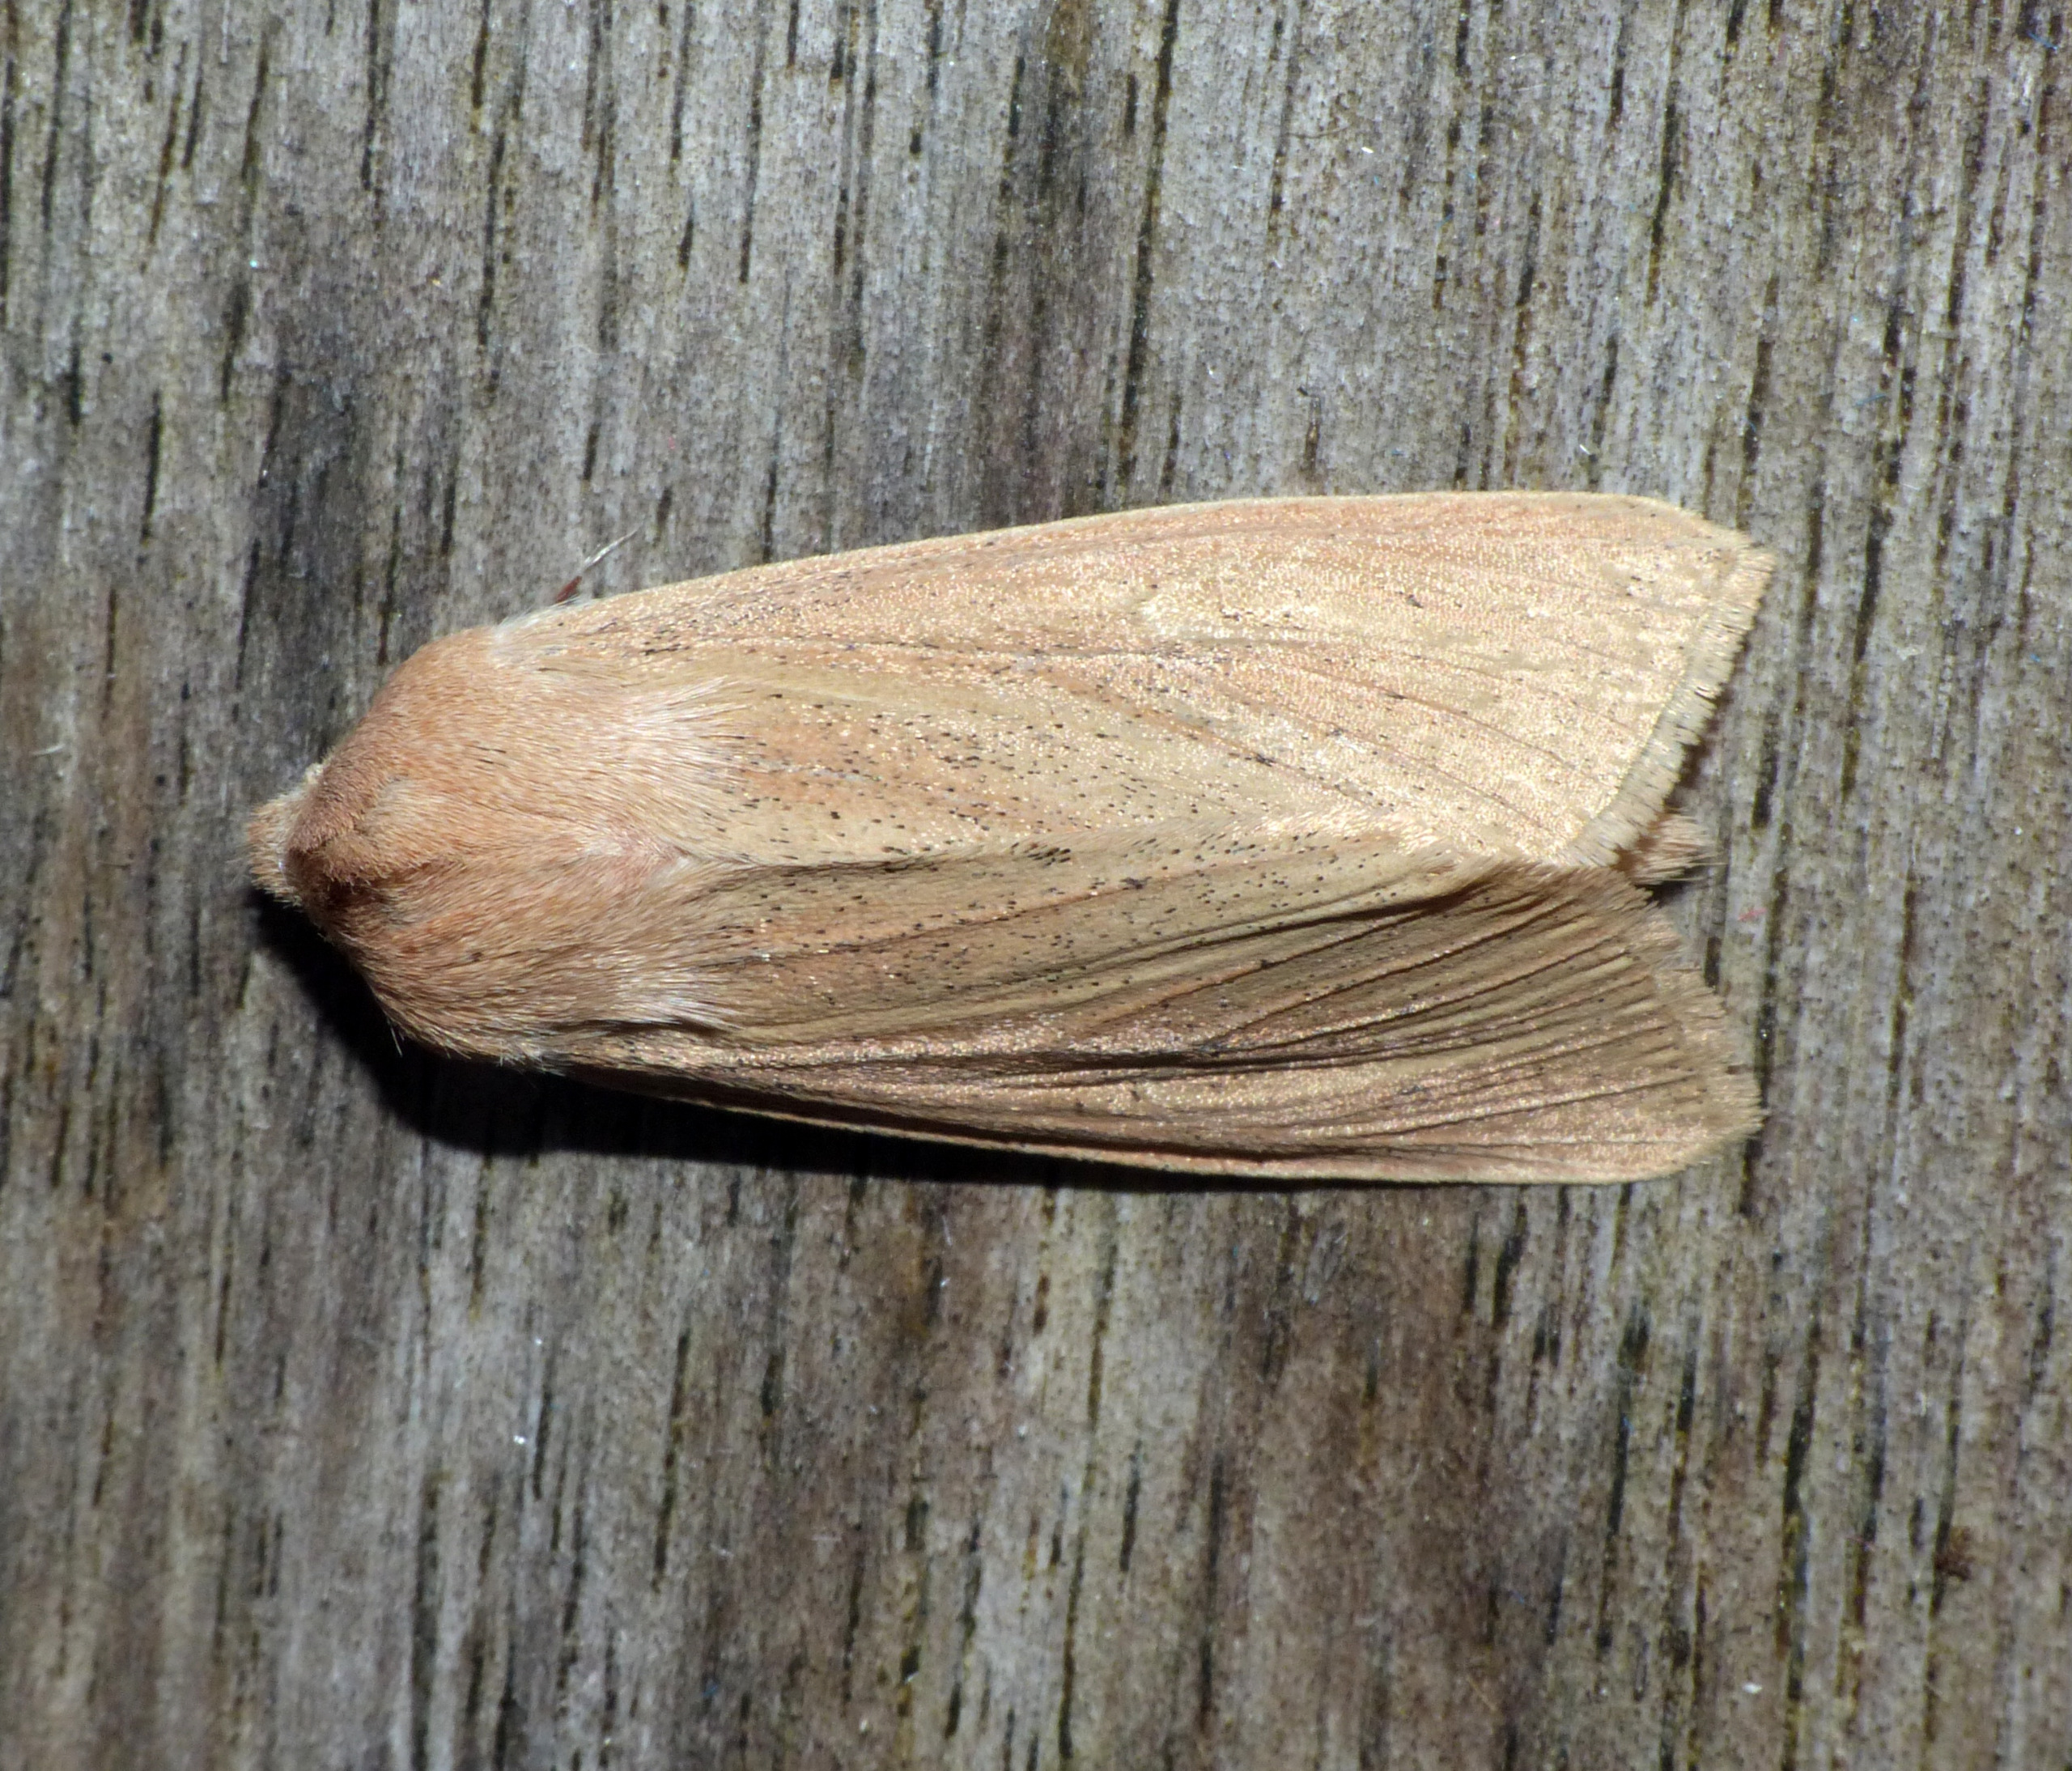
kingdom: Animalia
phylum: Arthropoda
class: Insecta
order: Lepidoptera
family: Noctuidae
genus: Rhizedra
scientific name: Rhizedra lutosa
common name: Stor sivugle
